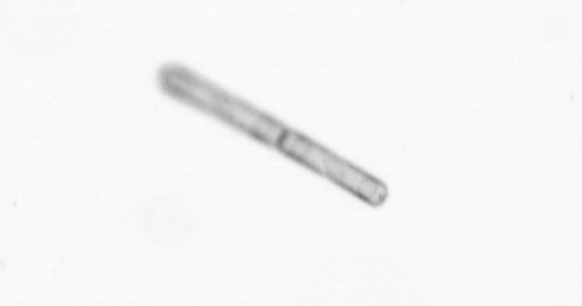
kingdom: Chromista
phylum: Ochrophyta
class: Bacillariophyceae
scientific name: Bacillariophyceae
